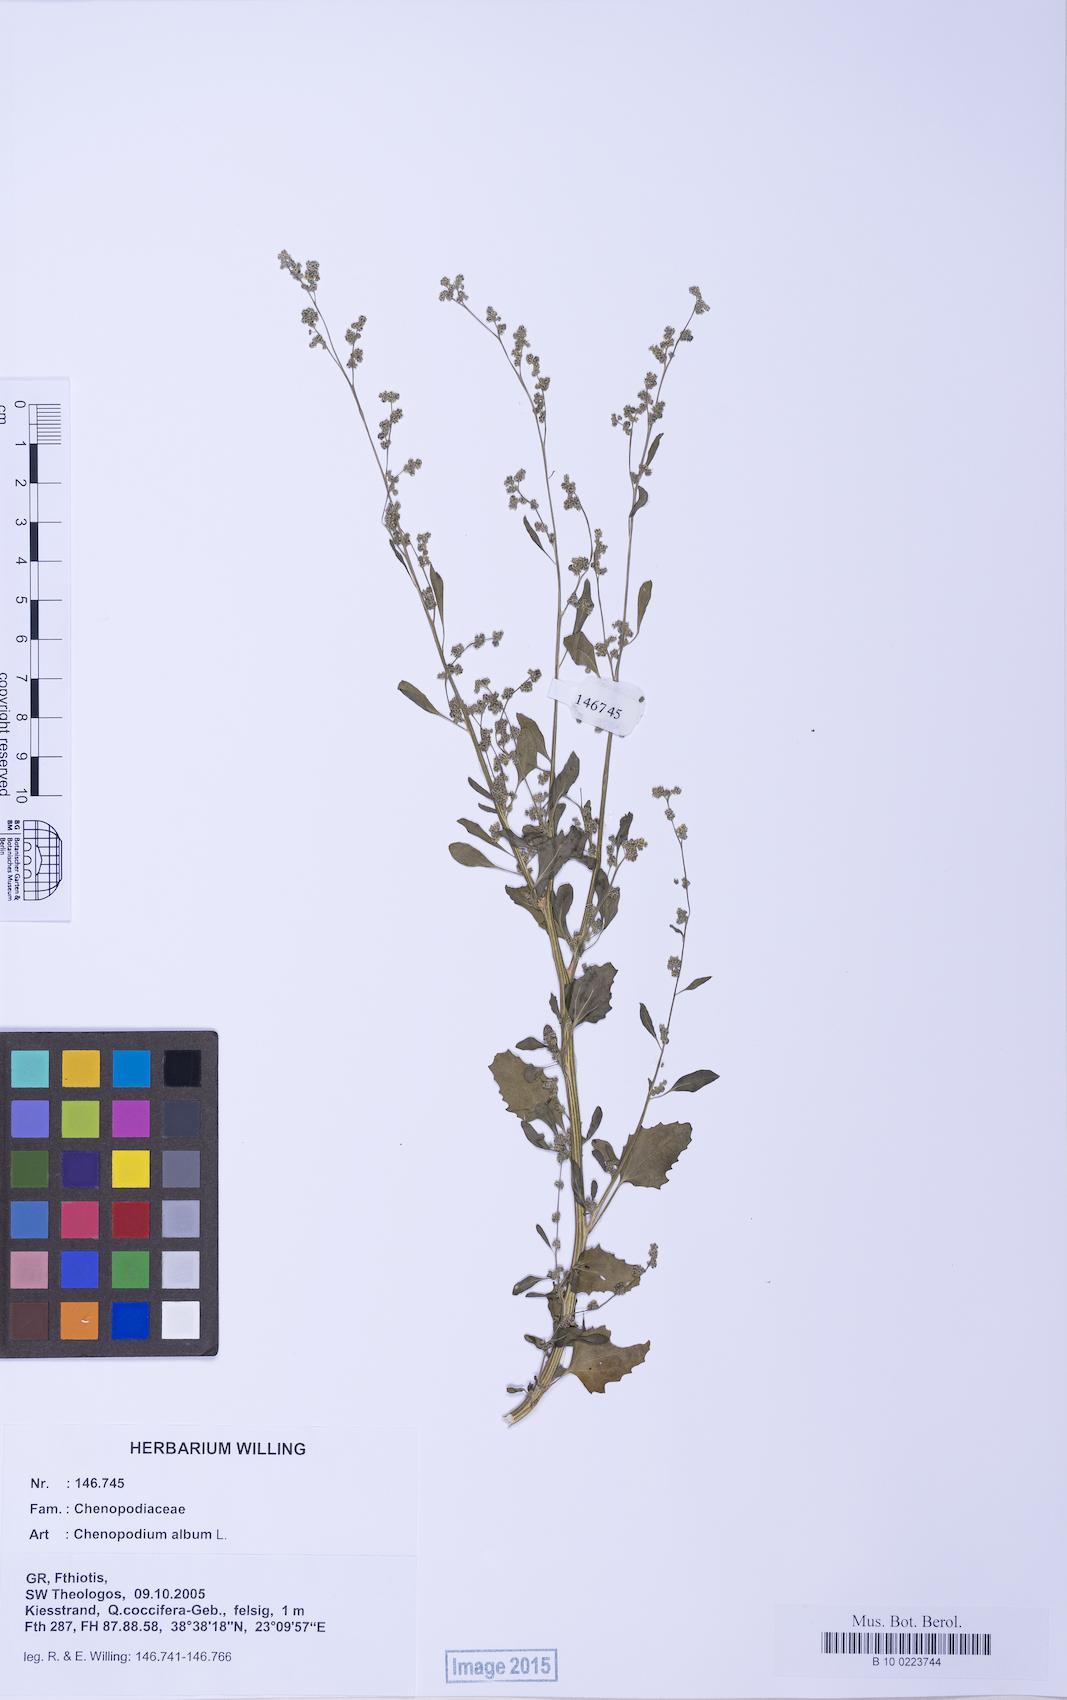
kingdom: Plantae
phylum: Tracheophyta
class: Magnoliopsida
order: Caryophyllales
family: Amaranthaceae
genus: Chenopodium
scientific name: Chenopodium album
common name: Fat-hen
